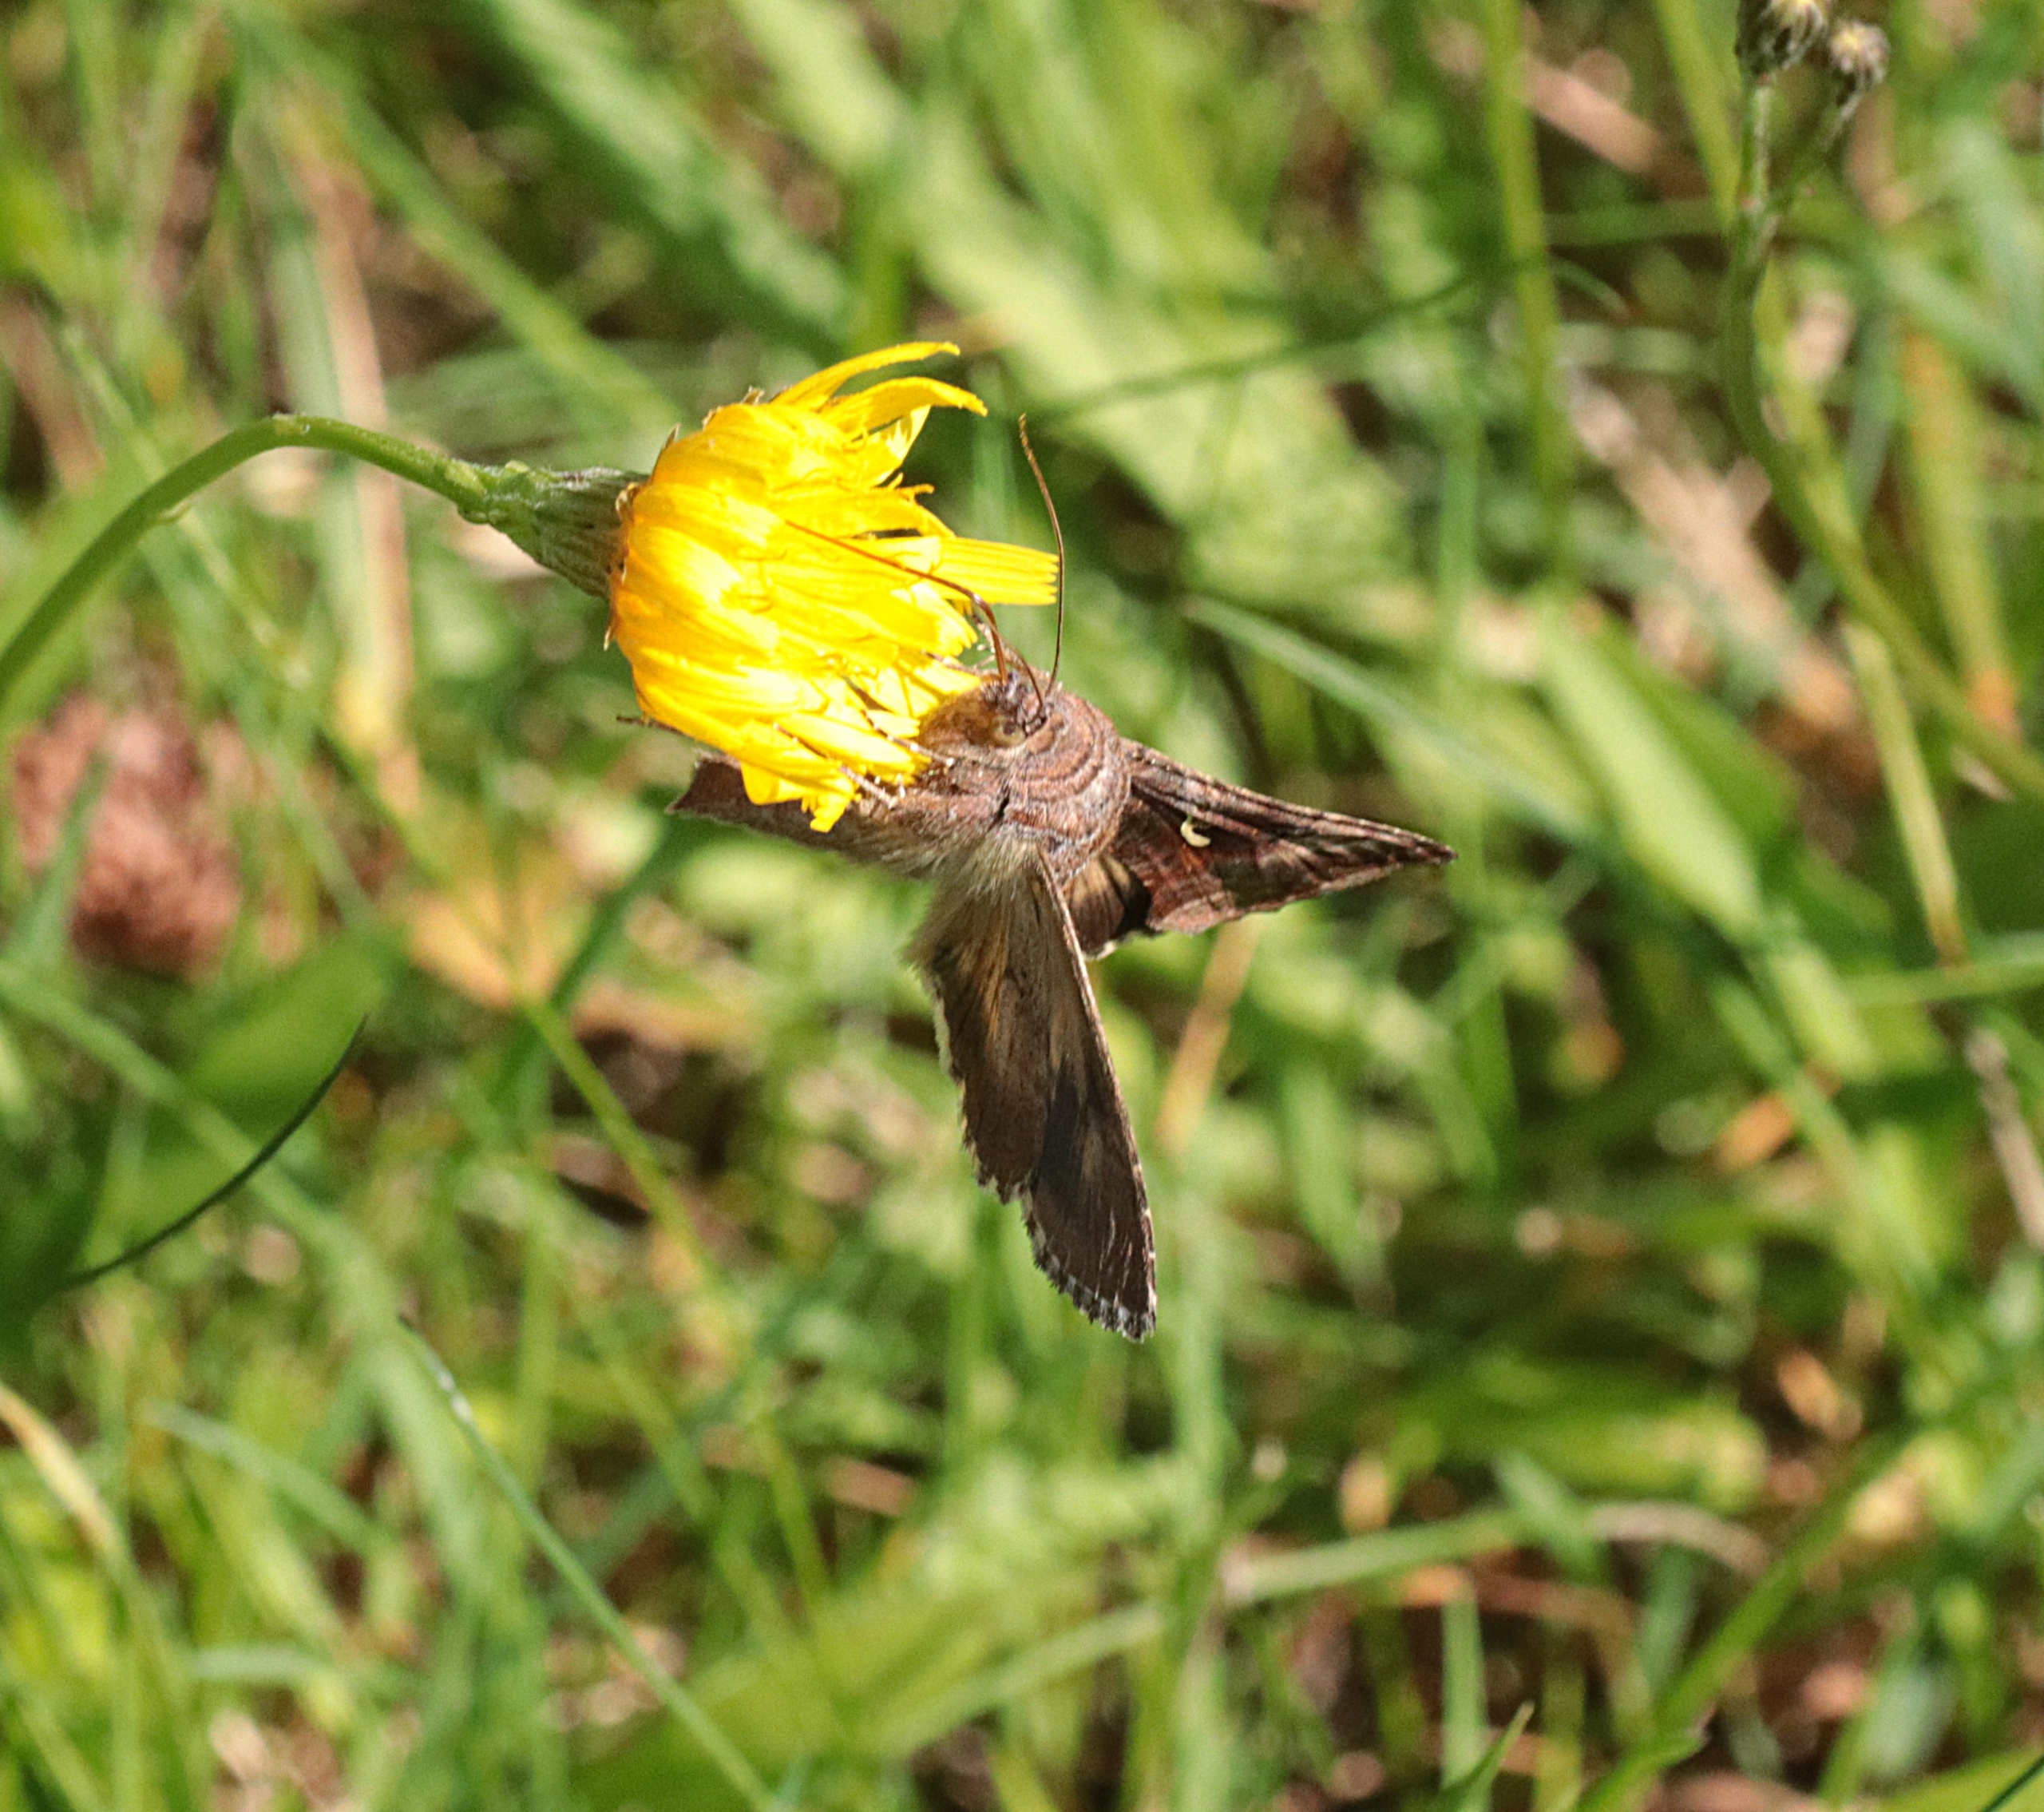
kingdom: Animalia
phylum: Arthropoda
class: Insecta
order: Lepidoptera
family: Noctuidae
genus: Autographa
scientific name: Autographa gamma
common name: Gammaugle
